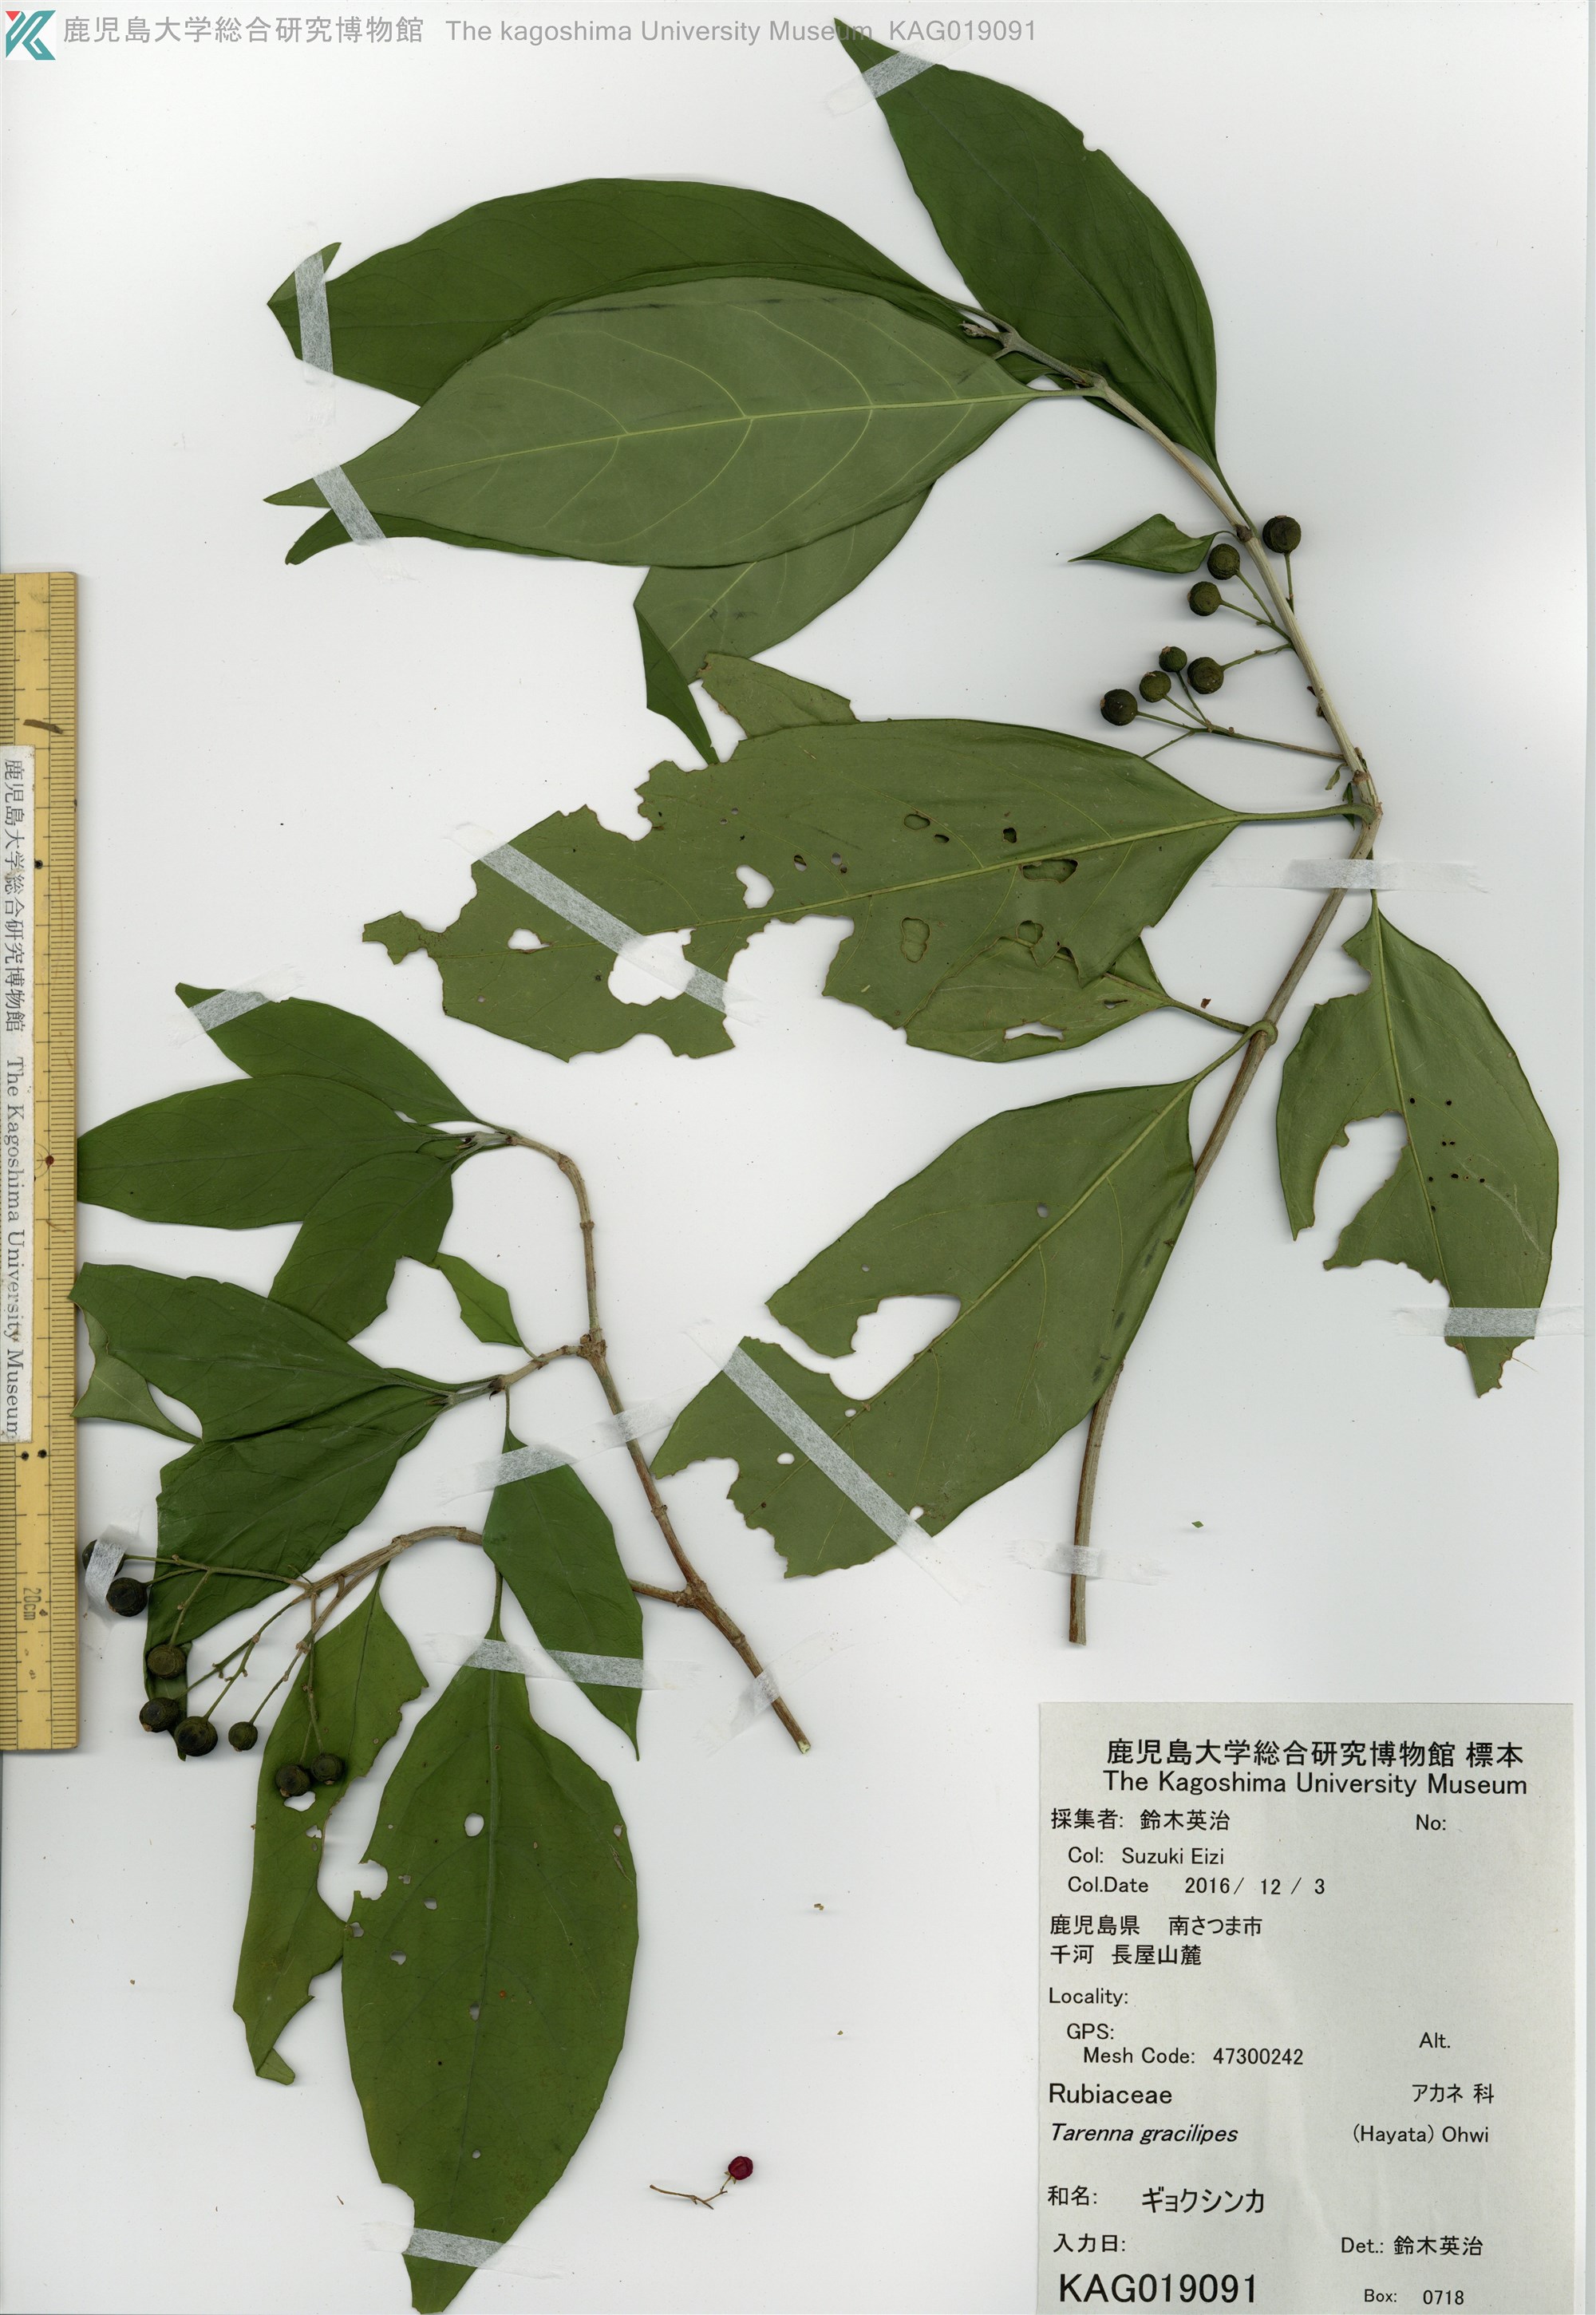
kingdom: Plantae
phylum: Tracheophyta
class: Magnoliopsida
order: Gentianales
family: Rubiaceae
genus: Tarenna
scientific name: Tarenna asiatica
